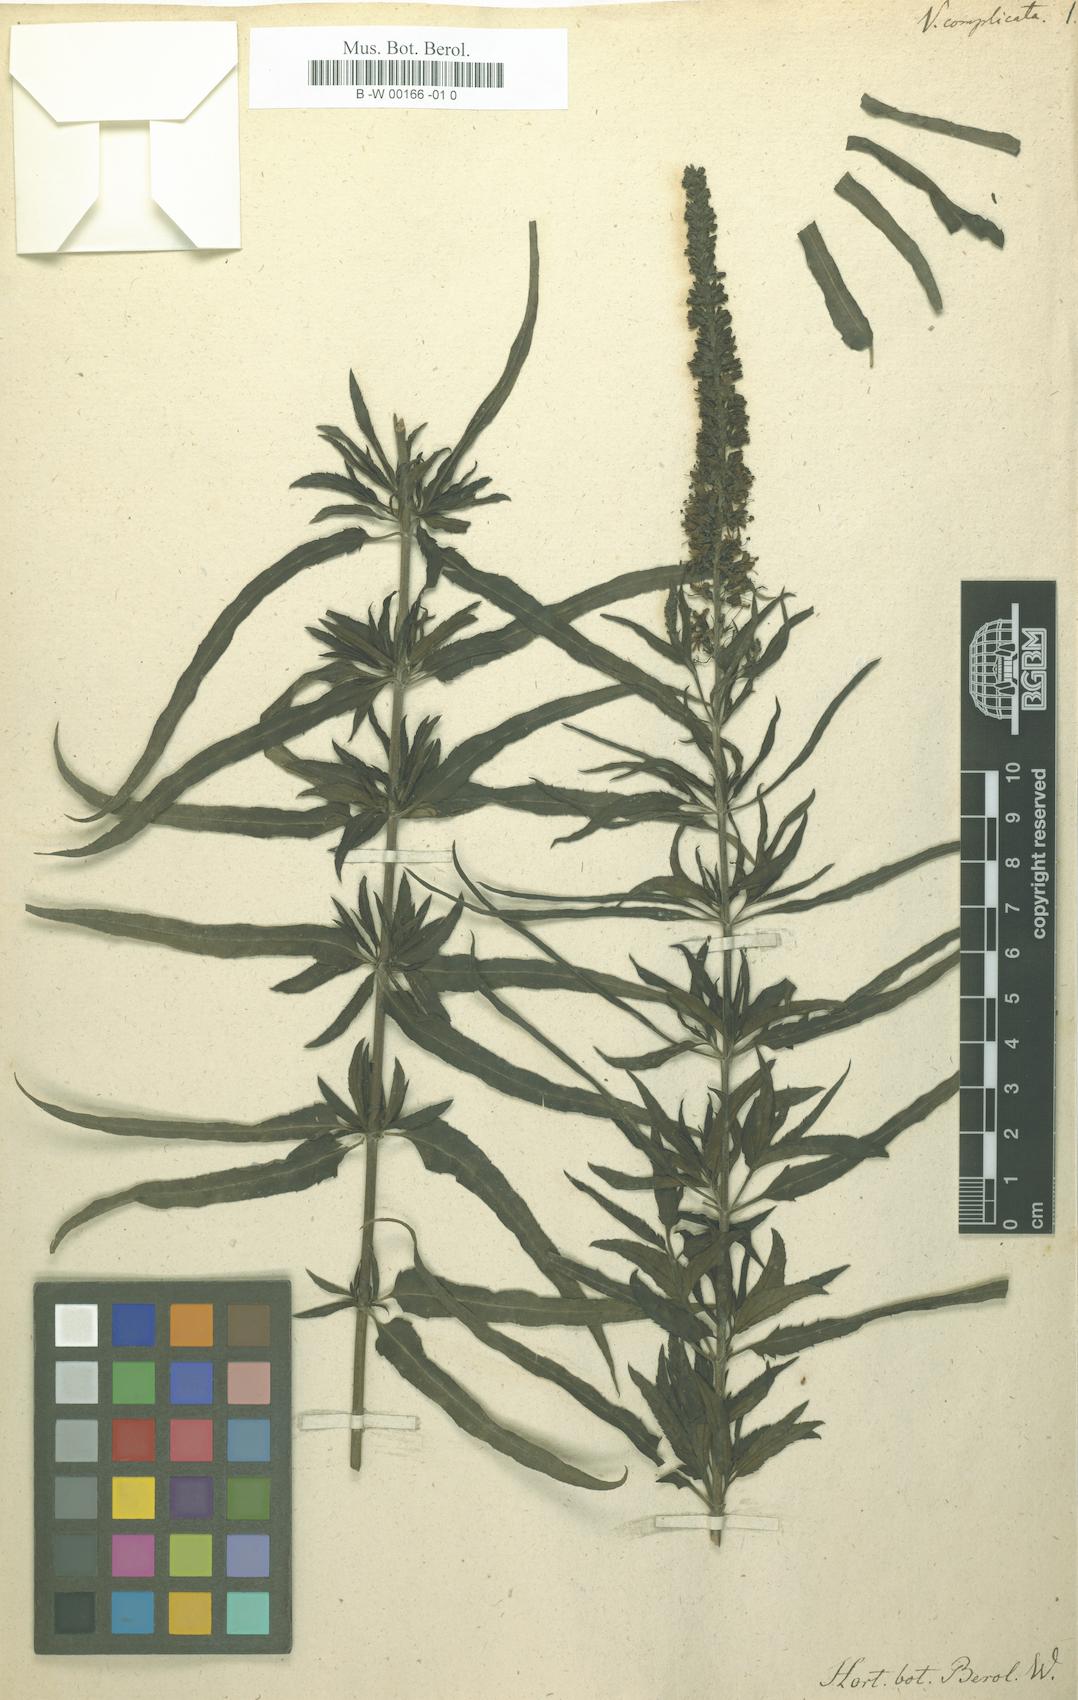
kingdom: Plantae
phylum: Tracheophyta
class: Magnoliopsida
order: Lamiales
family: Plantaginaceae
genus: Veronica
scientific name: Veronica maritima
